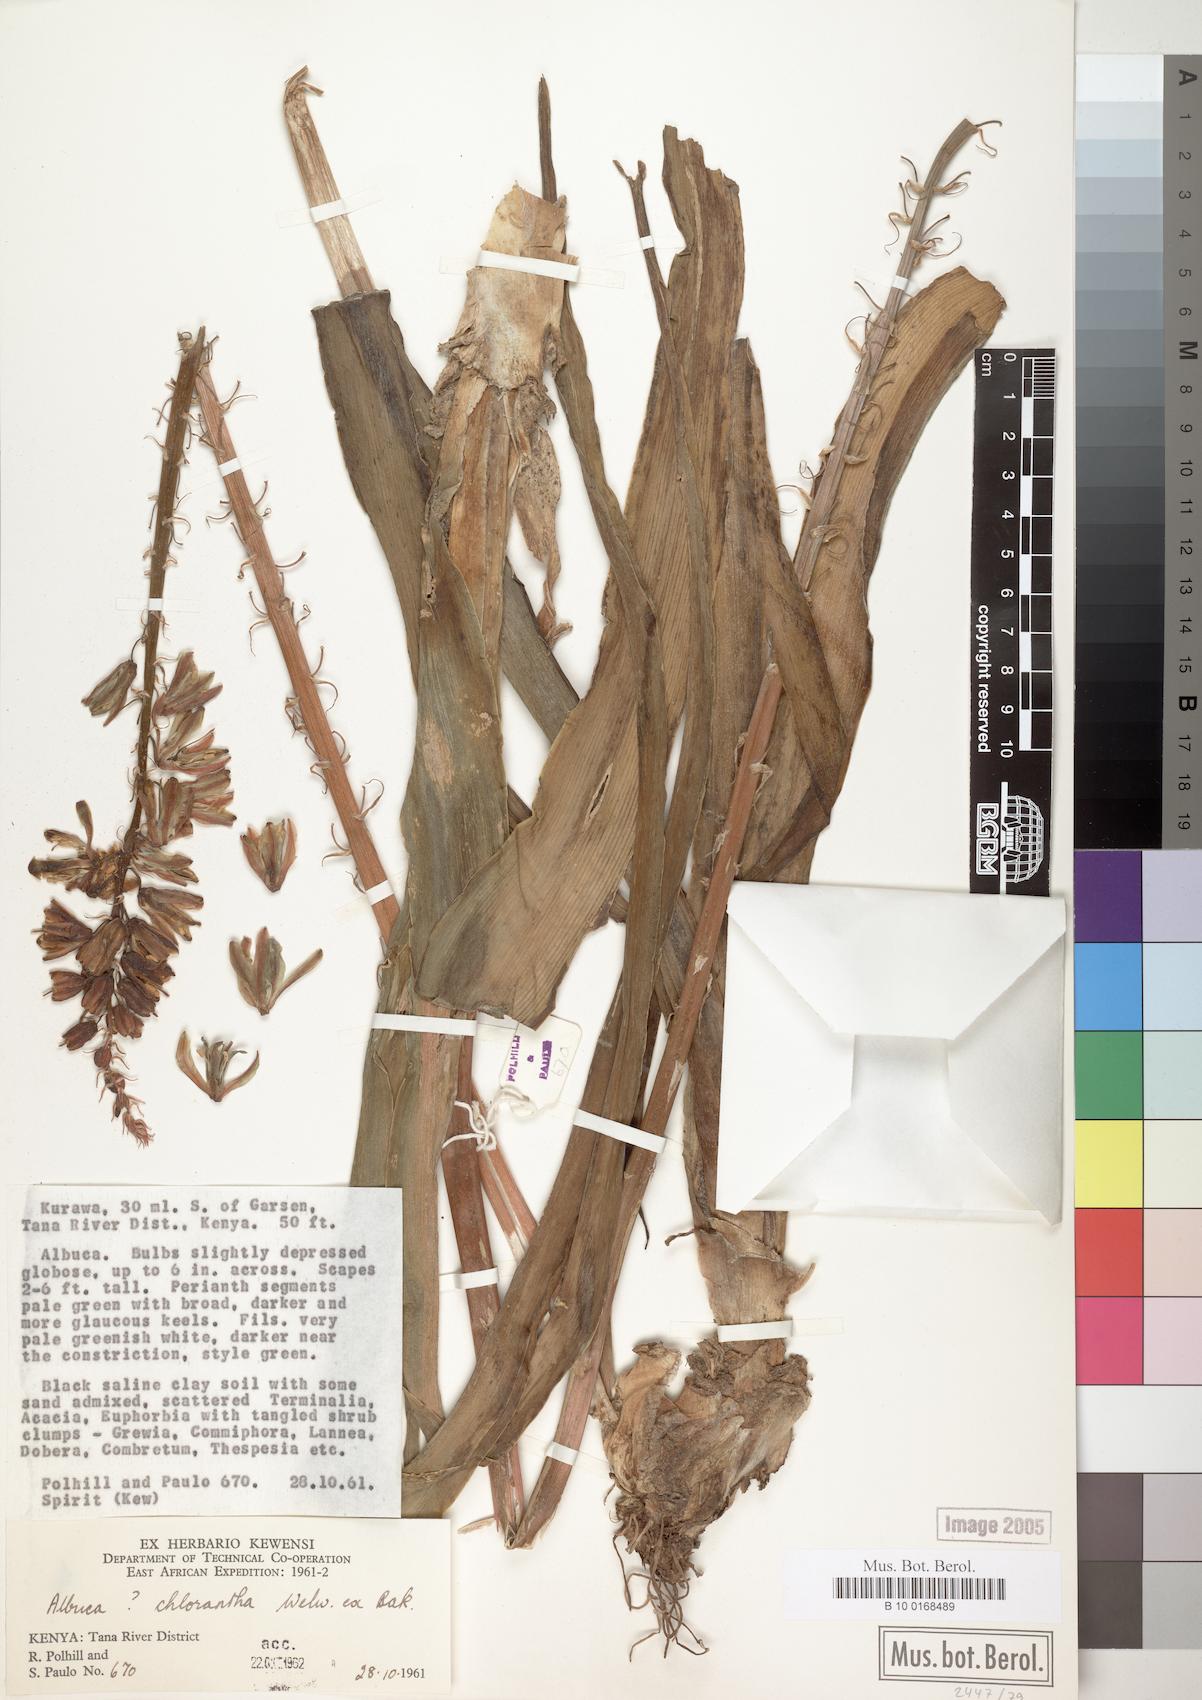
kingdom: Plantae
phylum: Tracheophyta
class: Liliopsida
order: Asparagales
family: Asparagaceae
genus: Albuca
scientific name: Albuca chlorantha
